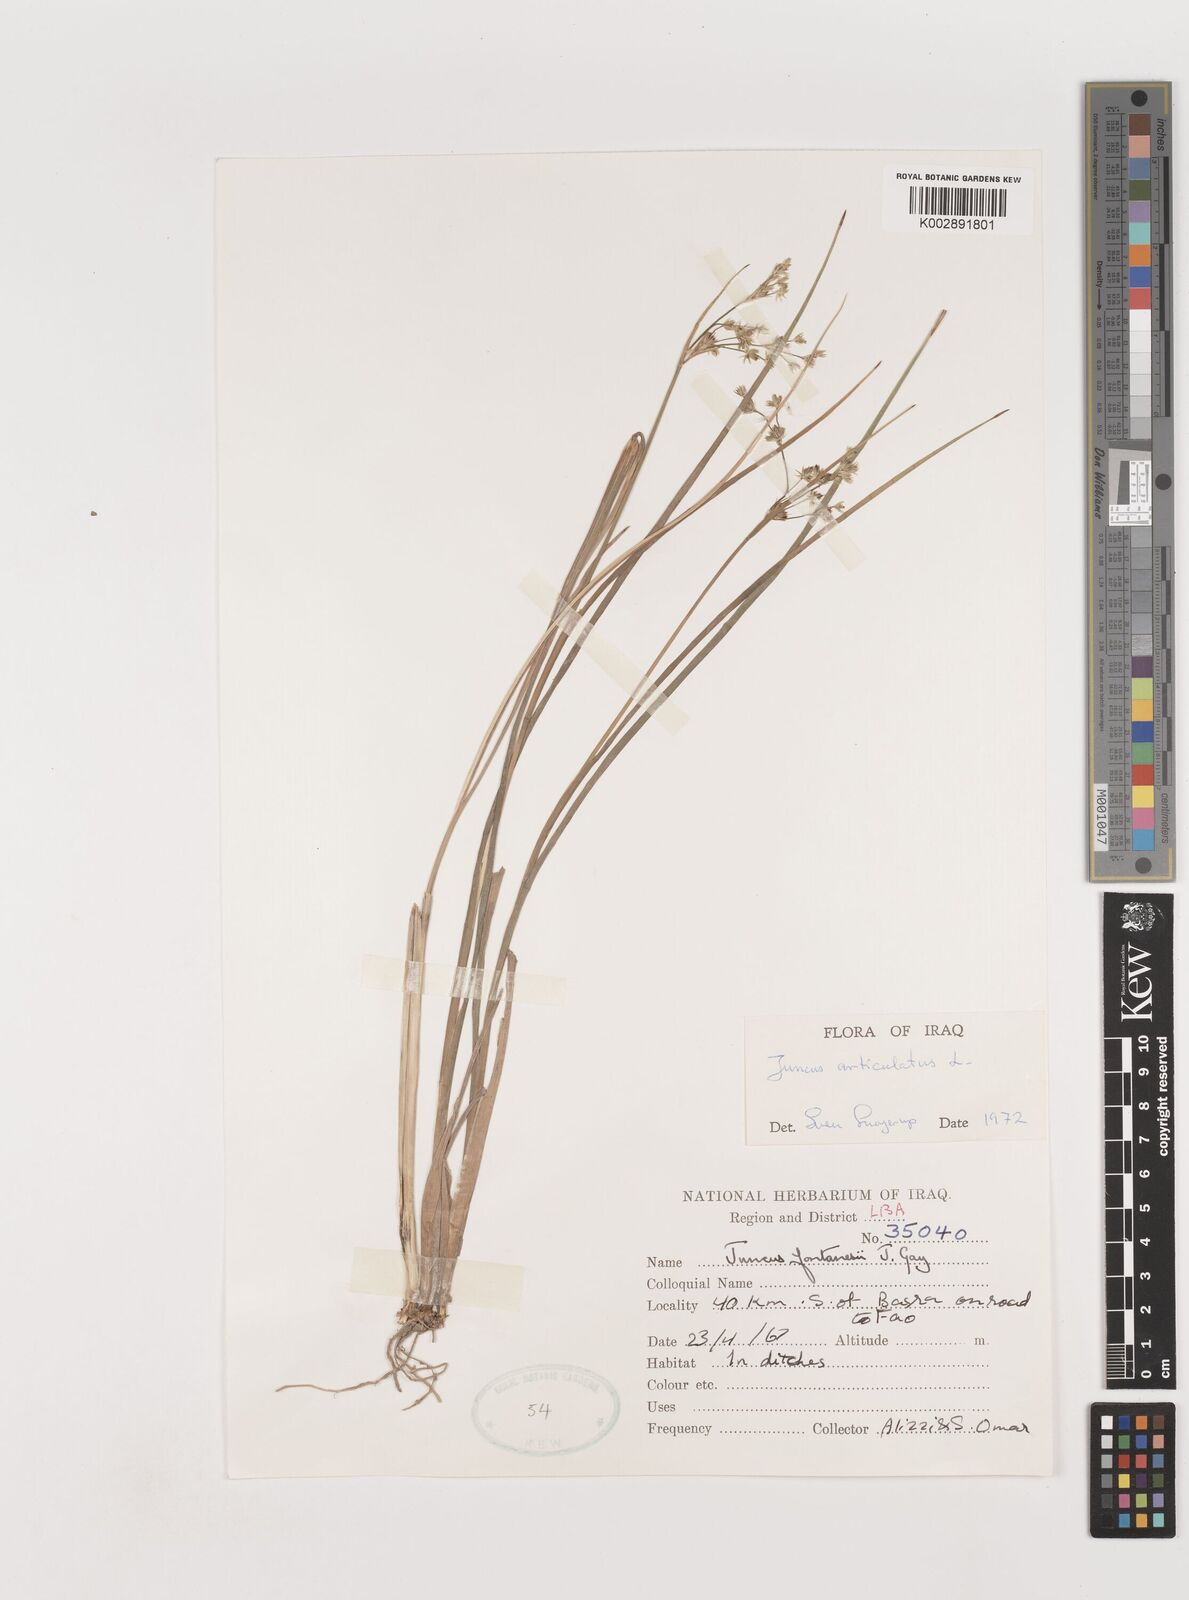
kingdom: Plantae
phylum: Tracheophyta
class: Liliopsida
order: Poales
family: Juncaceae
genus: Juncus
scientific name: Juncus articulatus
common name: Jointed rush
